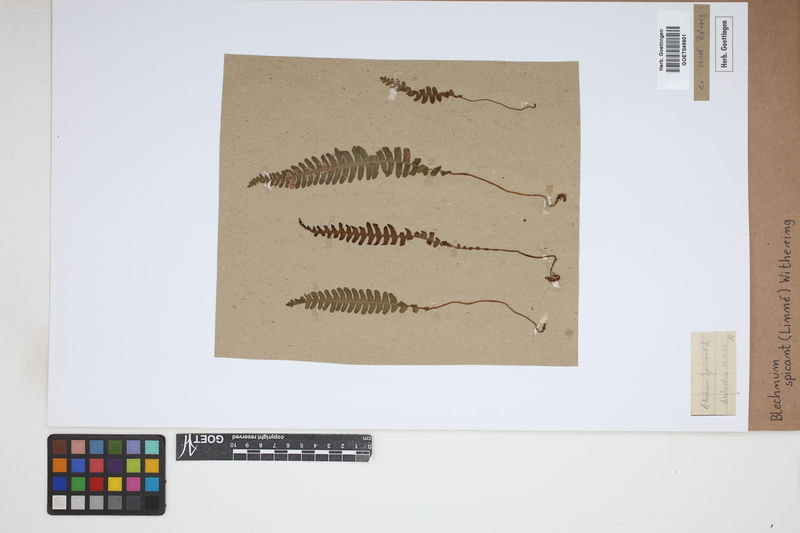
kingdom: Plantae
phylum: Tracheophyta
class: Polypodiopsida
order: Polypodiales
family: Blechnaceae
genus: Struthiopteris
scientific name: Struthiopteris spicant
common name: Deer fern
